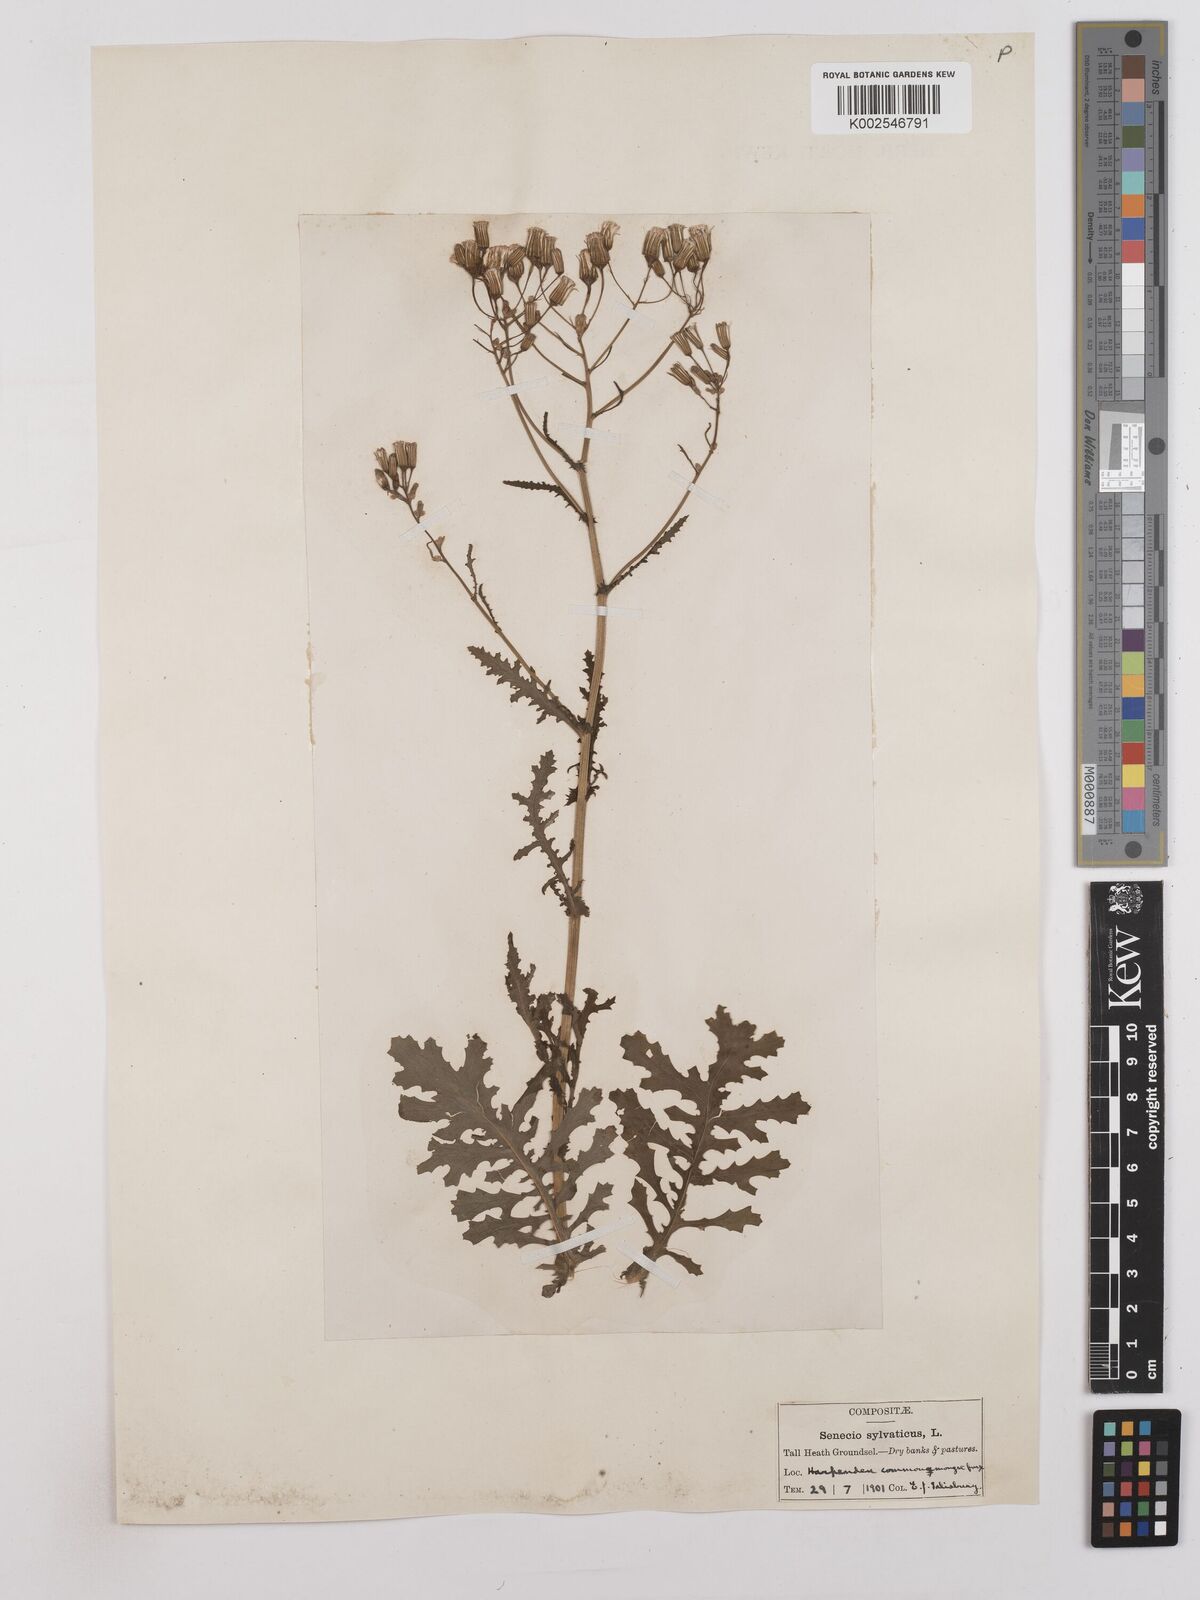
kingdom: Plantae
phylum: Tracheophyta
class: Magnoliopsida
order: Asterales
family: Asteraceae
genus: Senecio
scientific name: Senecio sylvaticus
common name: Woodland ragwort
